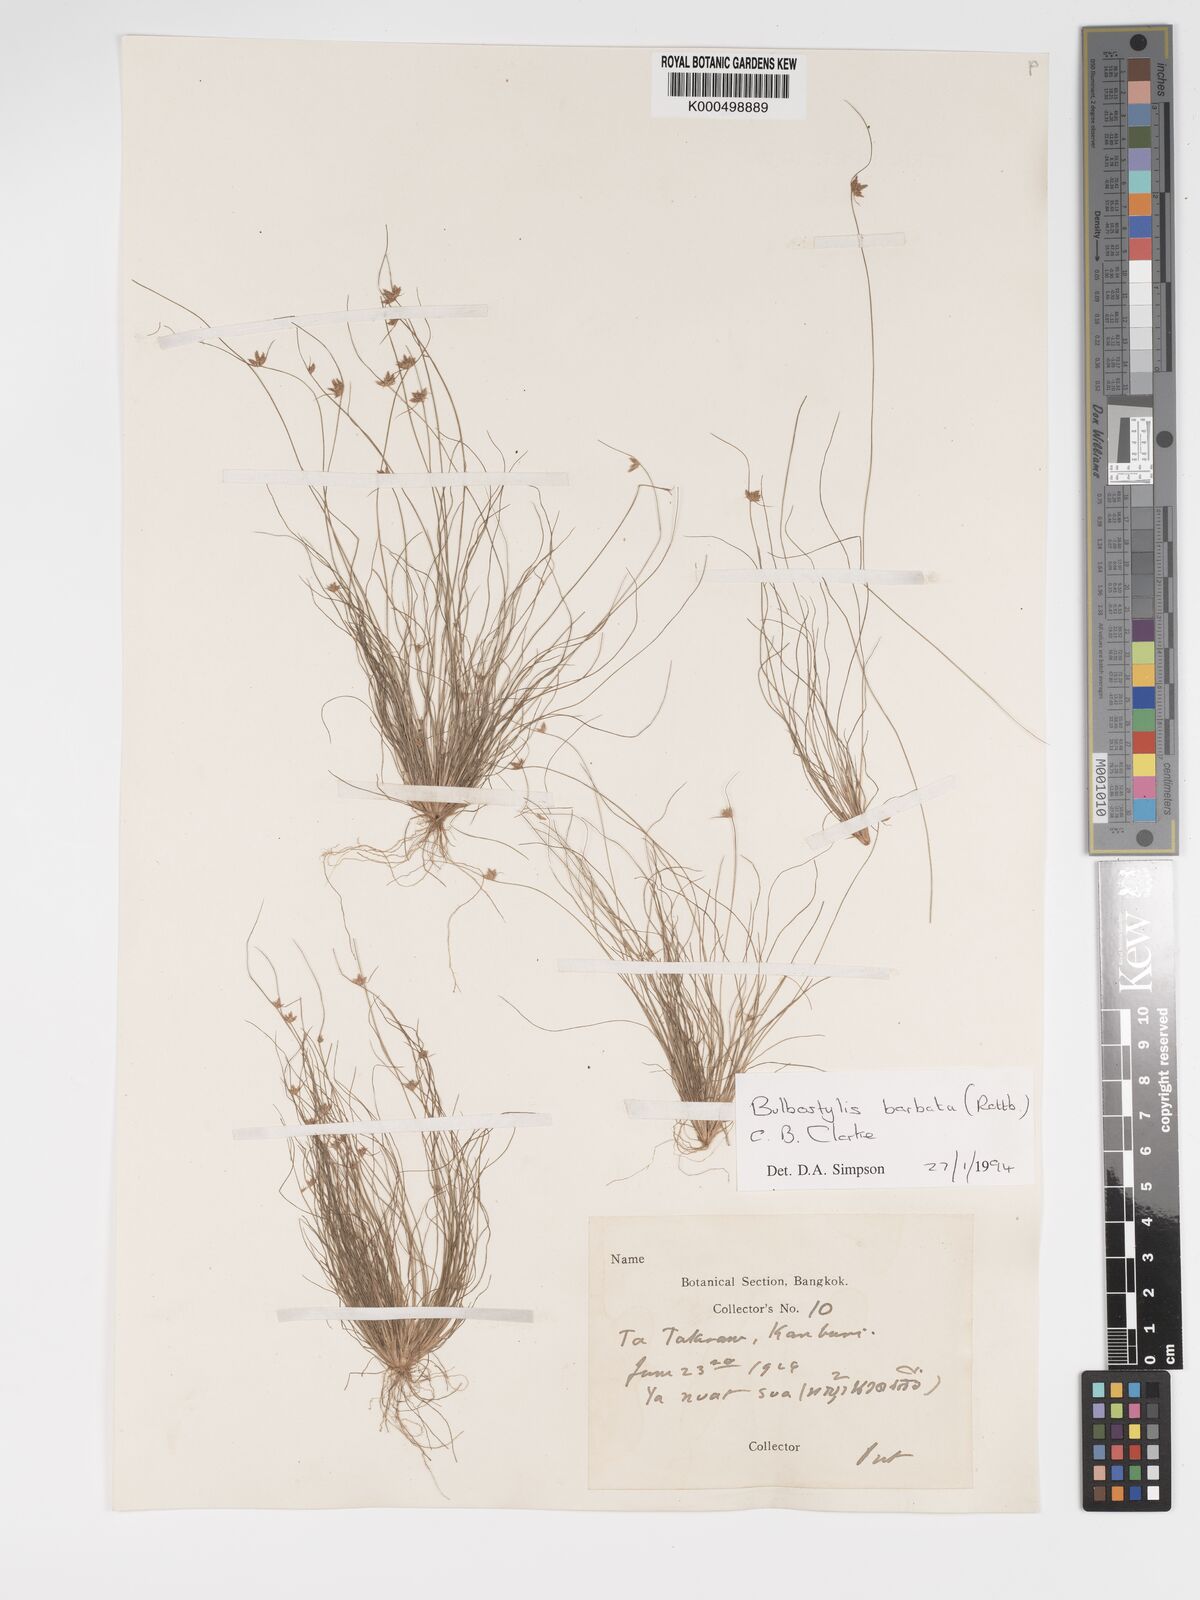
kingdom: Plantae
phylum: Tracheophyta
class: Liliopsida
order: Poales
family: Cyperaceae
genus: Bulbostylis
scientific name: Bulbostylis barbata
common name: Watergrass
